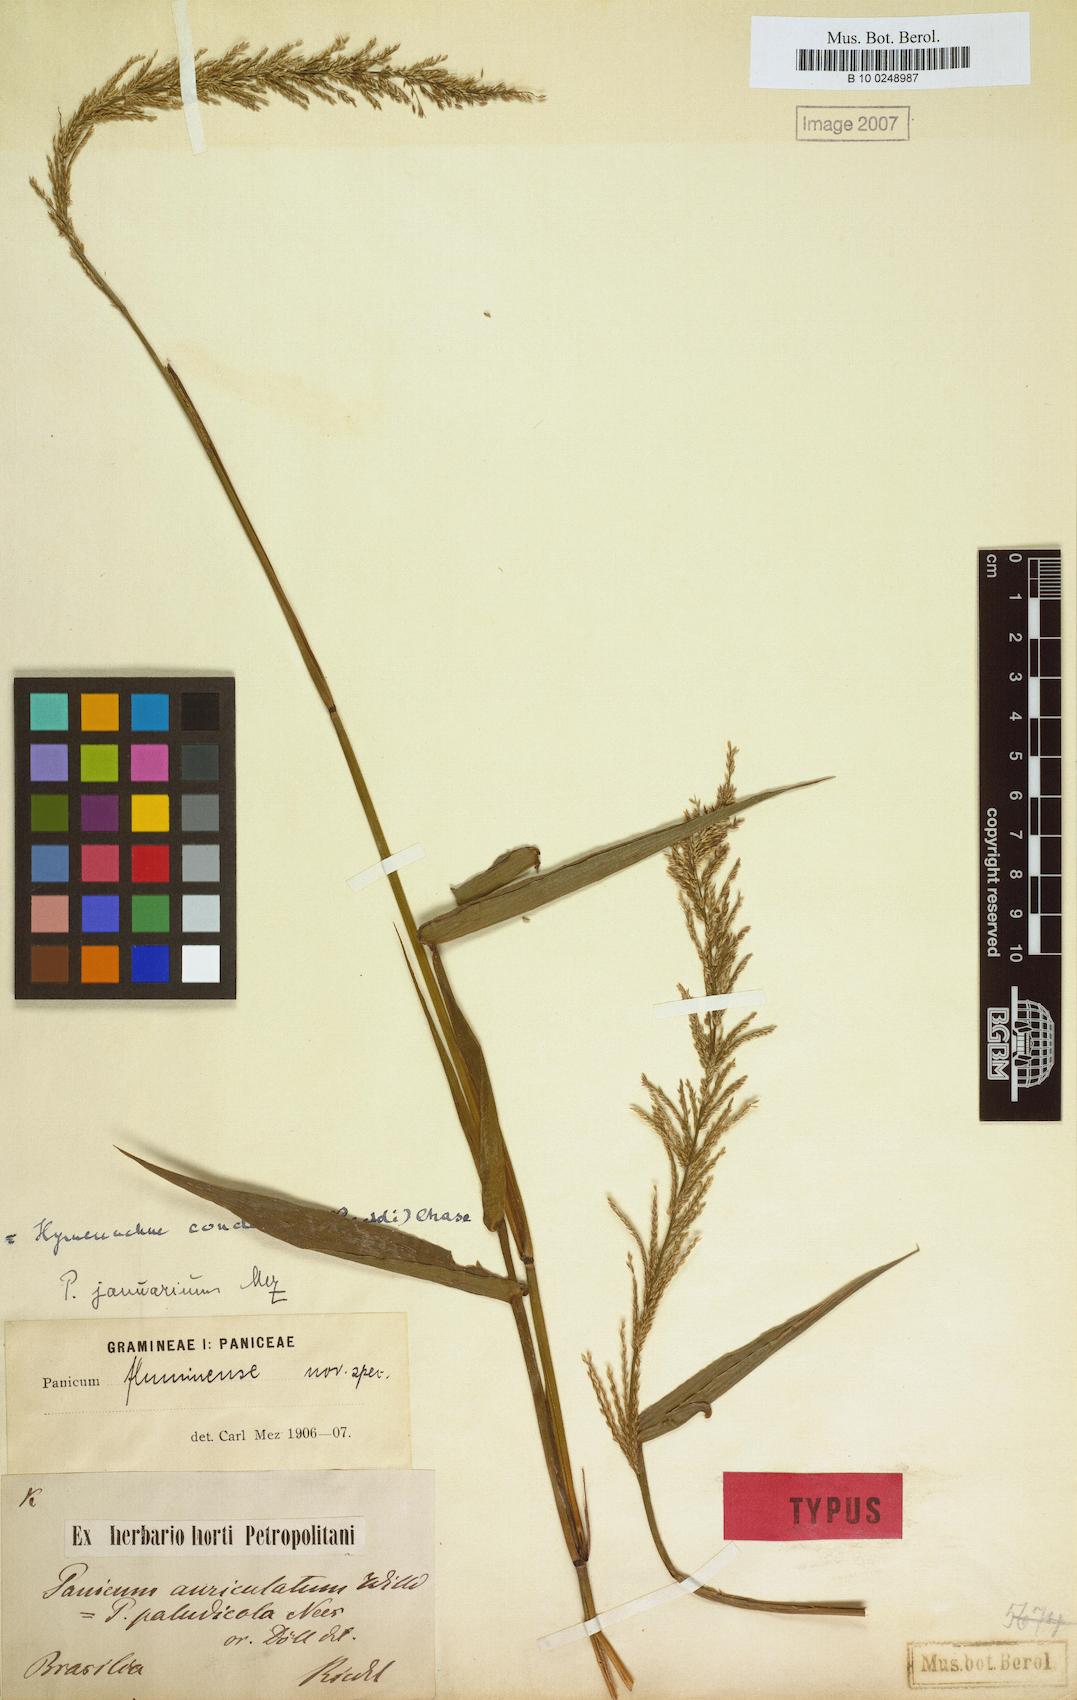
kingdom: Plantae
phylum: Tracheophyta
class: Liliopsida
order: Poales
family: Poaceae
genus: Hymenachne
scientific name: Hymenachne condensata
